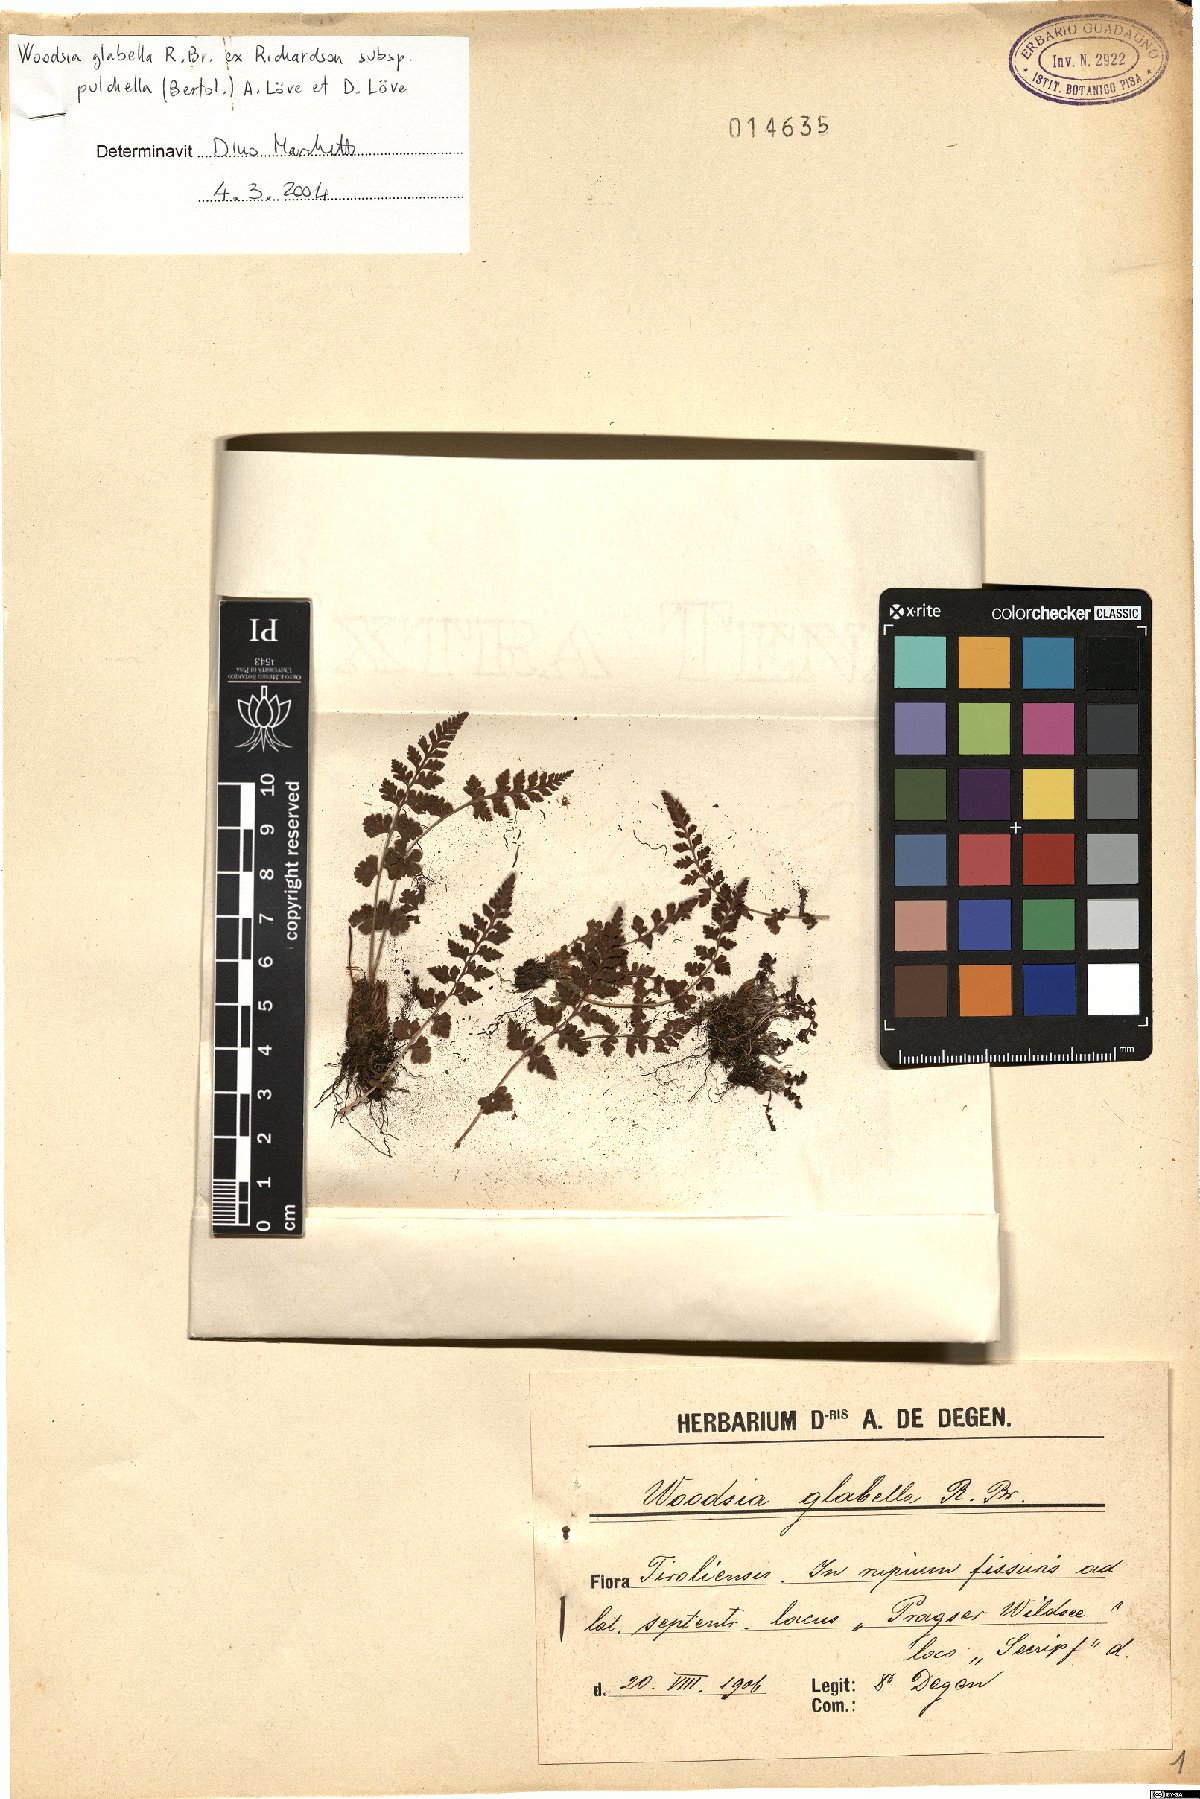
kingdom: Plantae
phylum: Tracheophyta
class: Polypodiopsida
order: Polypodiales
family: Woodsiaceae
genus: Woodsia
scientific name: Woodsia pulchella
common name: Graceful woodsia
